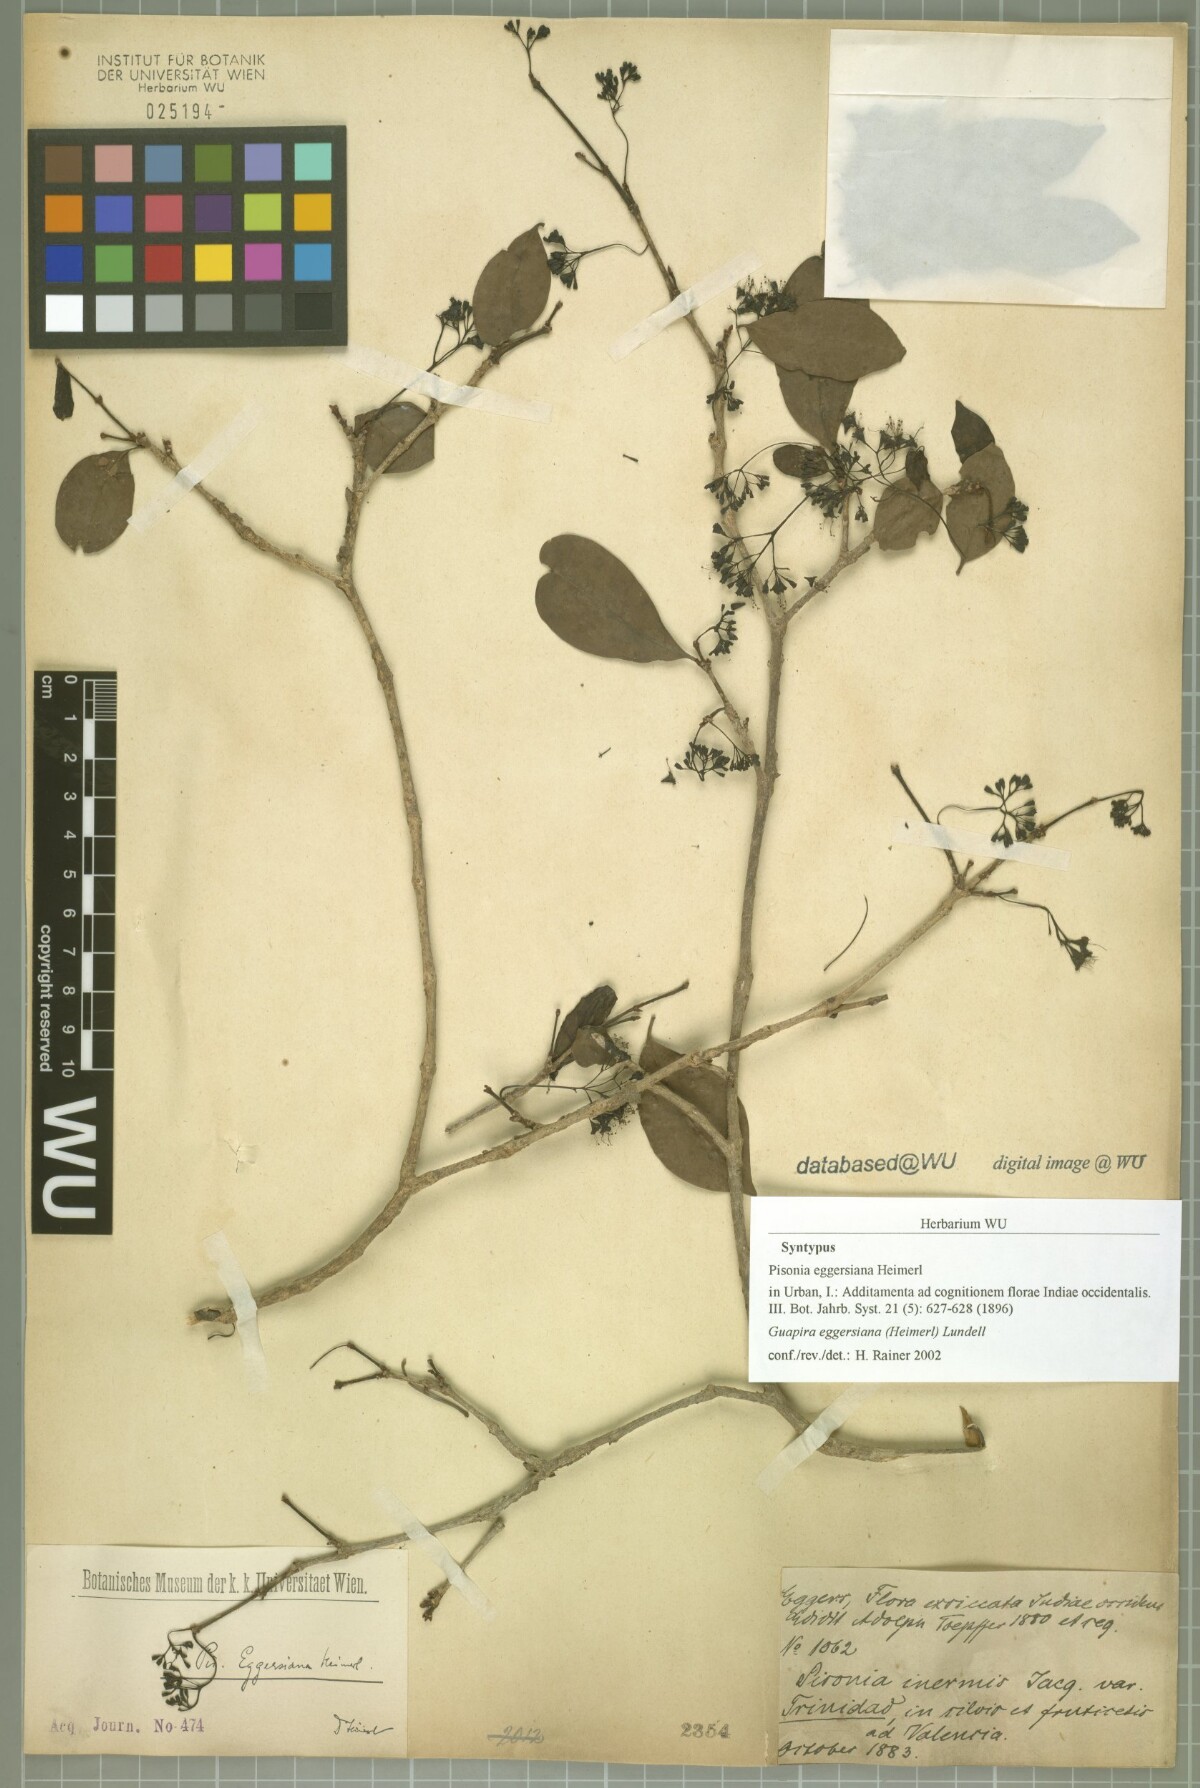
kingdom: Plantae
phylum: Tracheophyta
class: Magnoliopsida
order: Caryophyllales
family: Nyctaginaceae
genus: Guapira
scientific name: Guapira eggersiana
